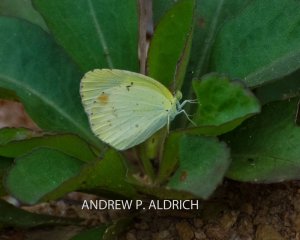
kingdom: Animalia
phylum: Arthropoda
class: Insecta
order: Lepidoptera
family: Pieridae
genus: Pyrisitia
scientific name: Pyrisitia lisa
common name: Little Yellow
